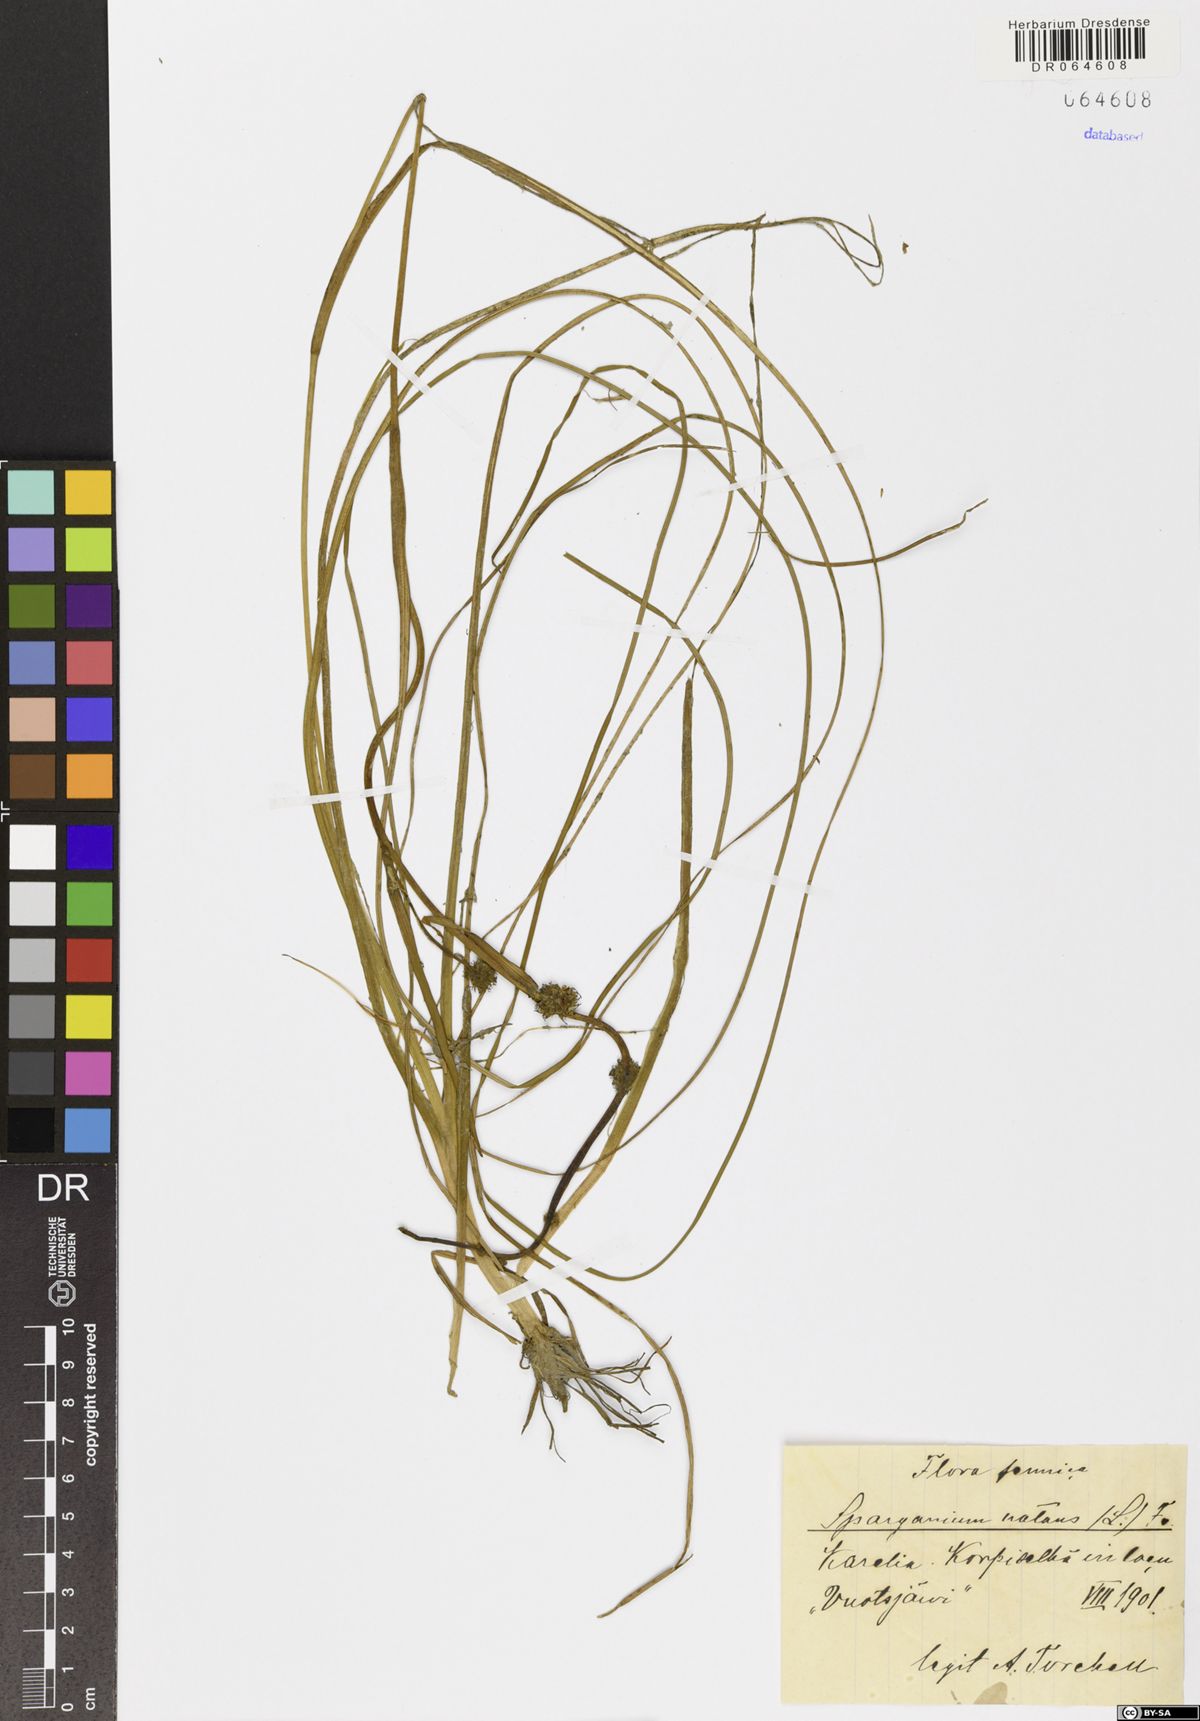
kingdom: Plantae
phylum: Tracheophyta
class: Liliopsida
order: Poales
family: Typhaceae
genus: Sparganium
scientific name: Sparganium natans
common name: Least bur-reed
